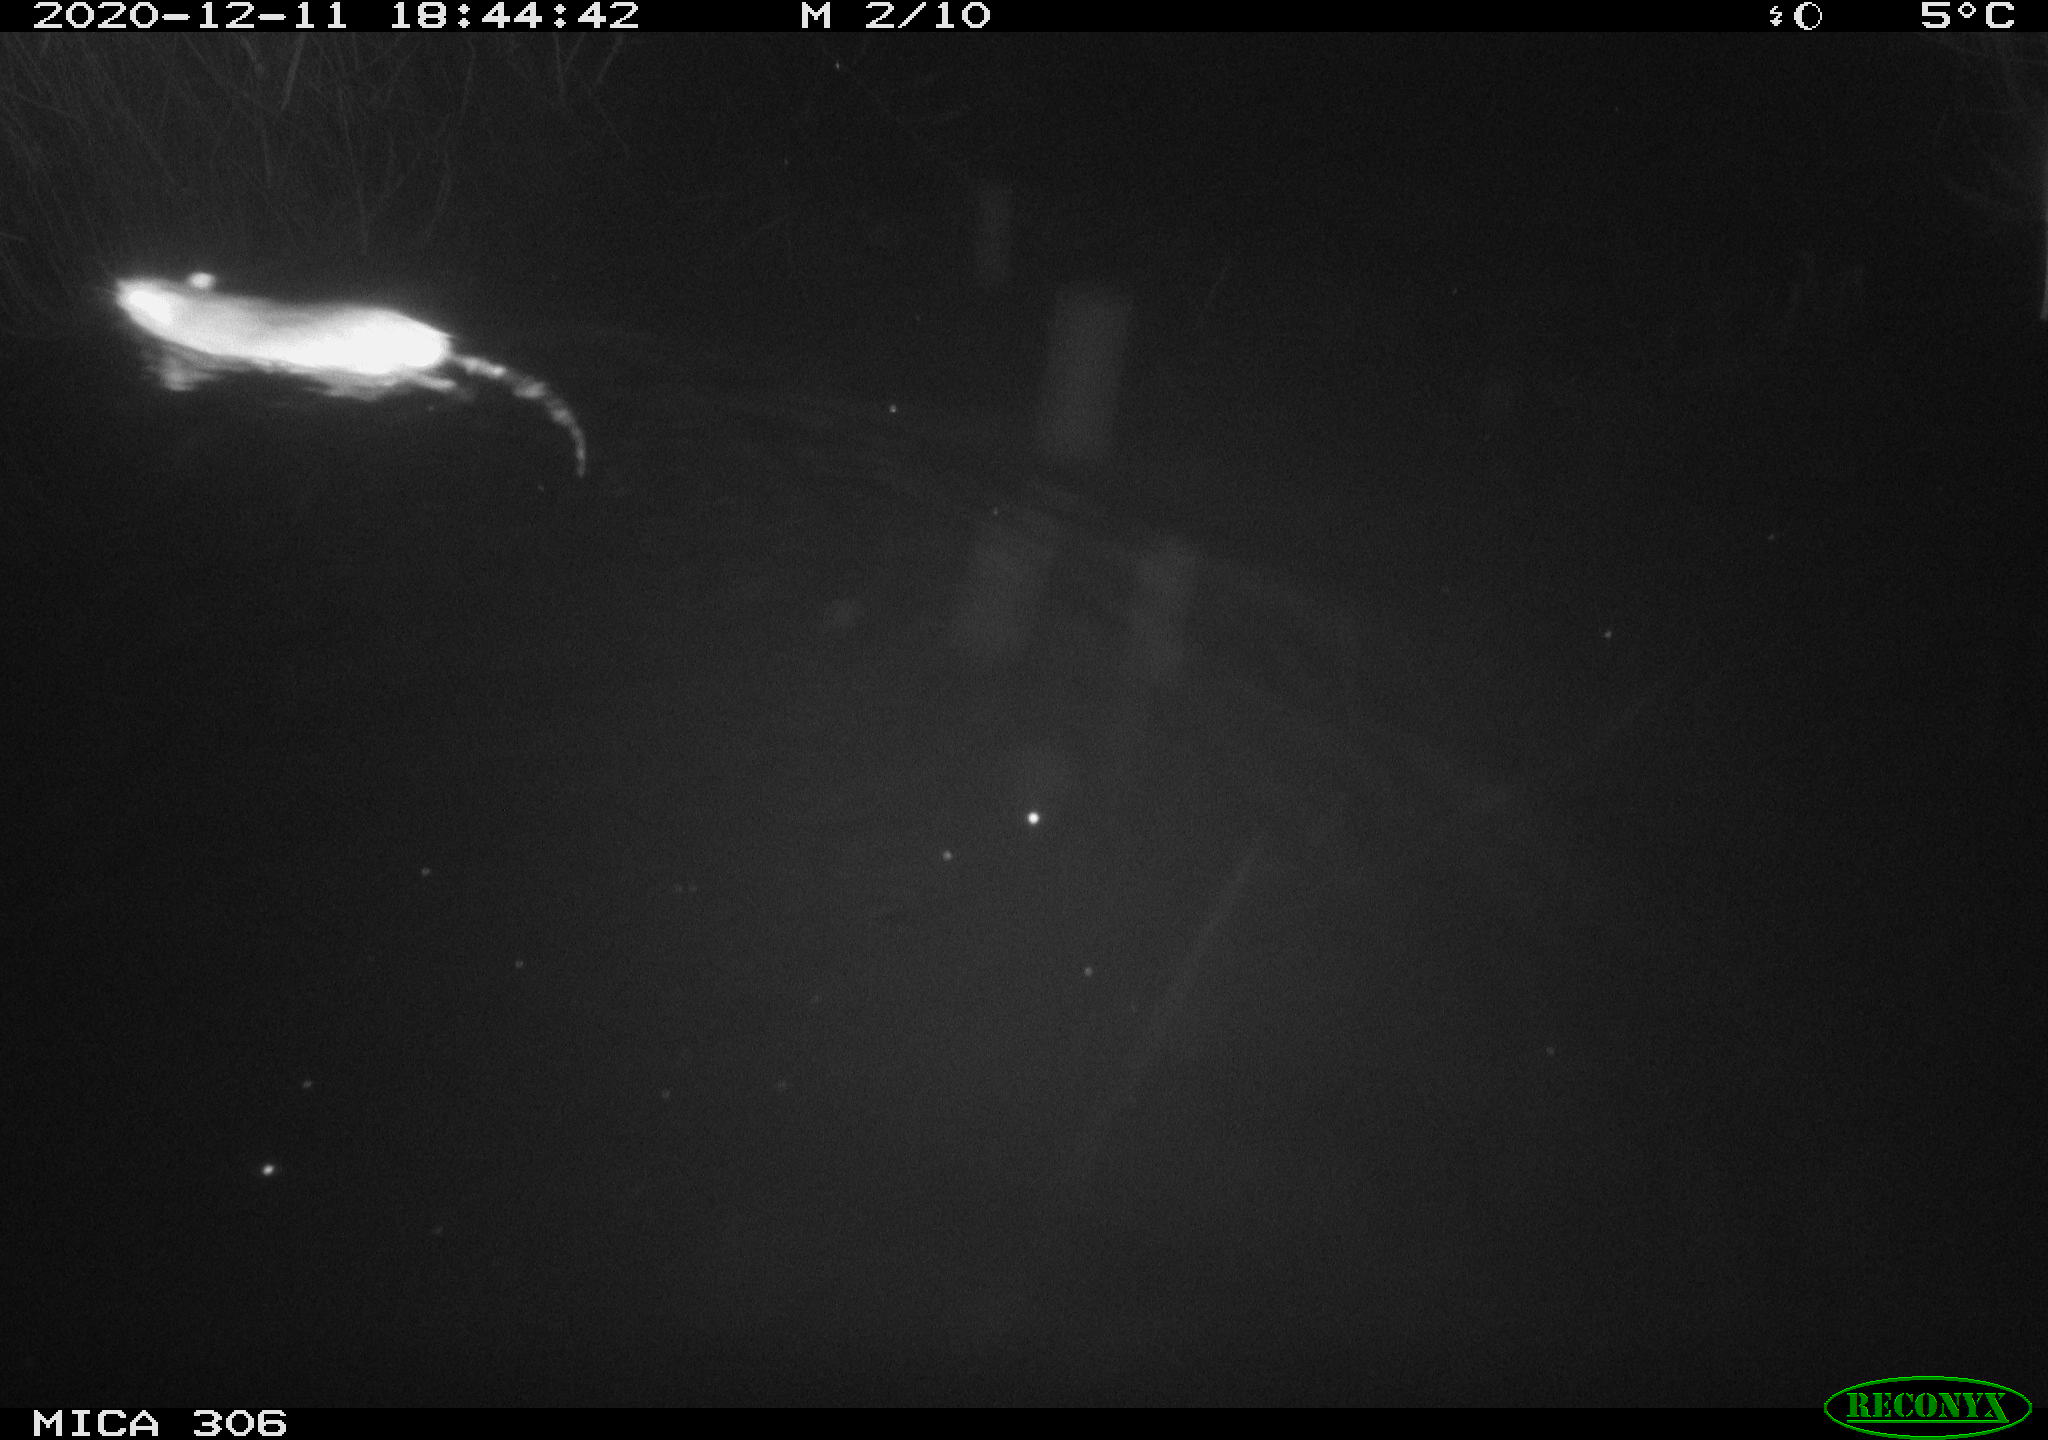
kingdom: Animalia
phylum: Chordata
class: Mammalia
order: Rodentia
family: Muridae
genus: Rattus
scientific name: Rattus norvegicus
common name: Brown rat
